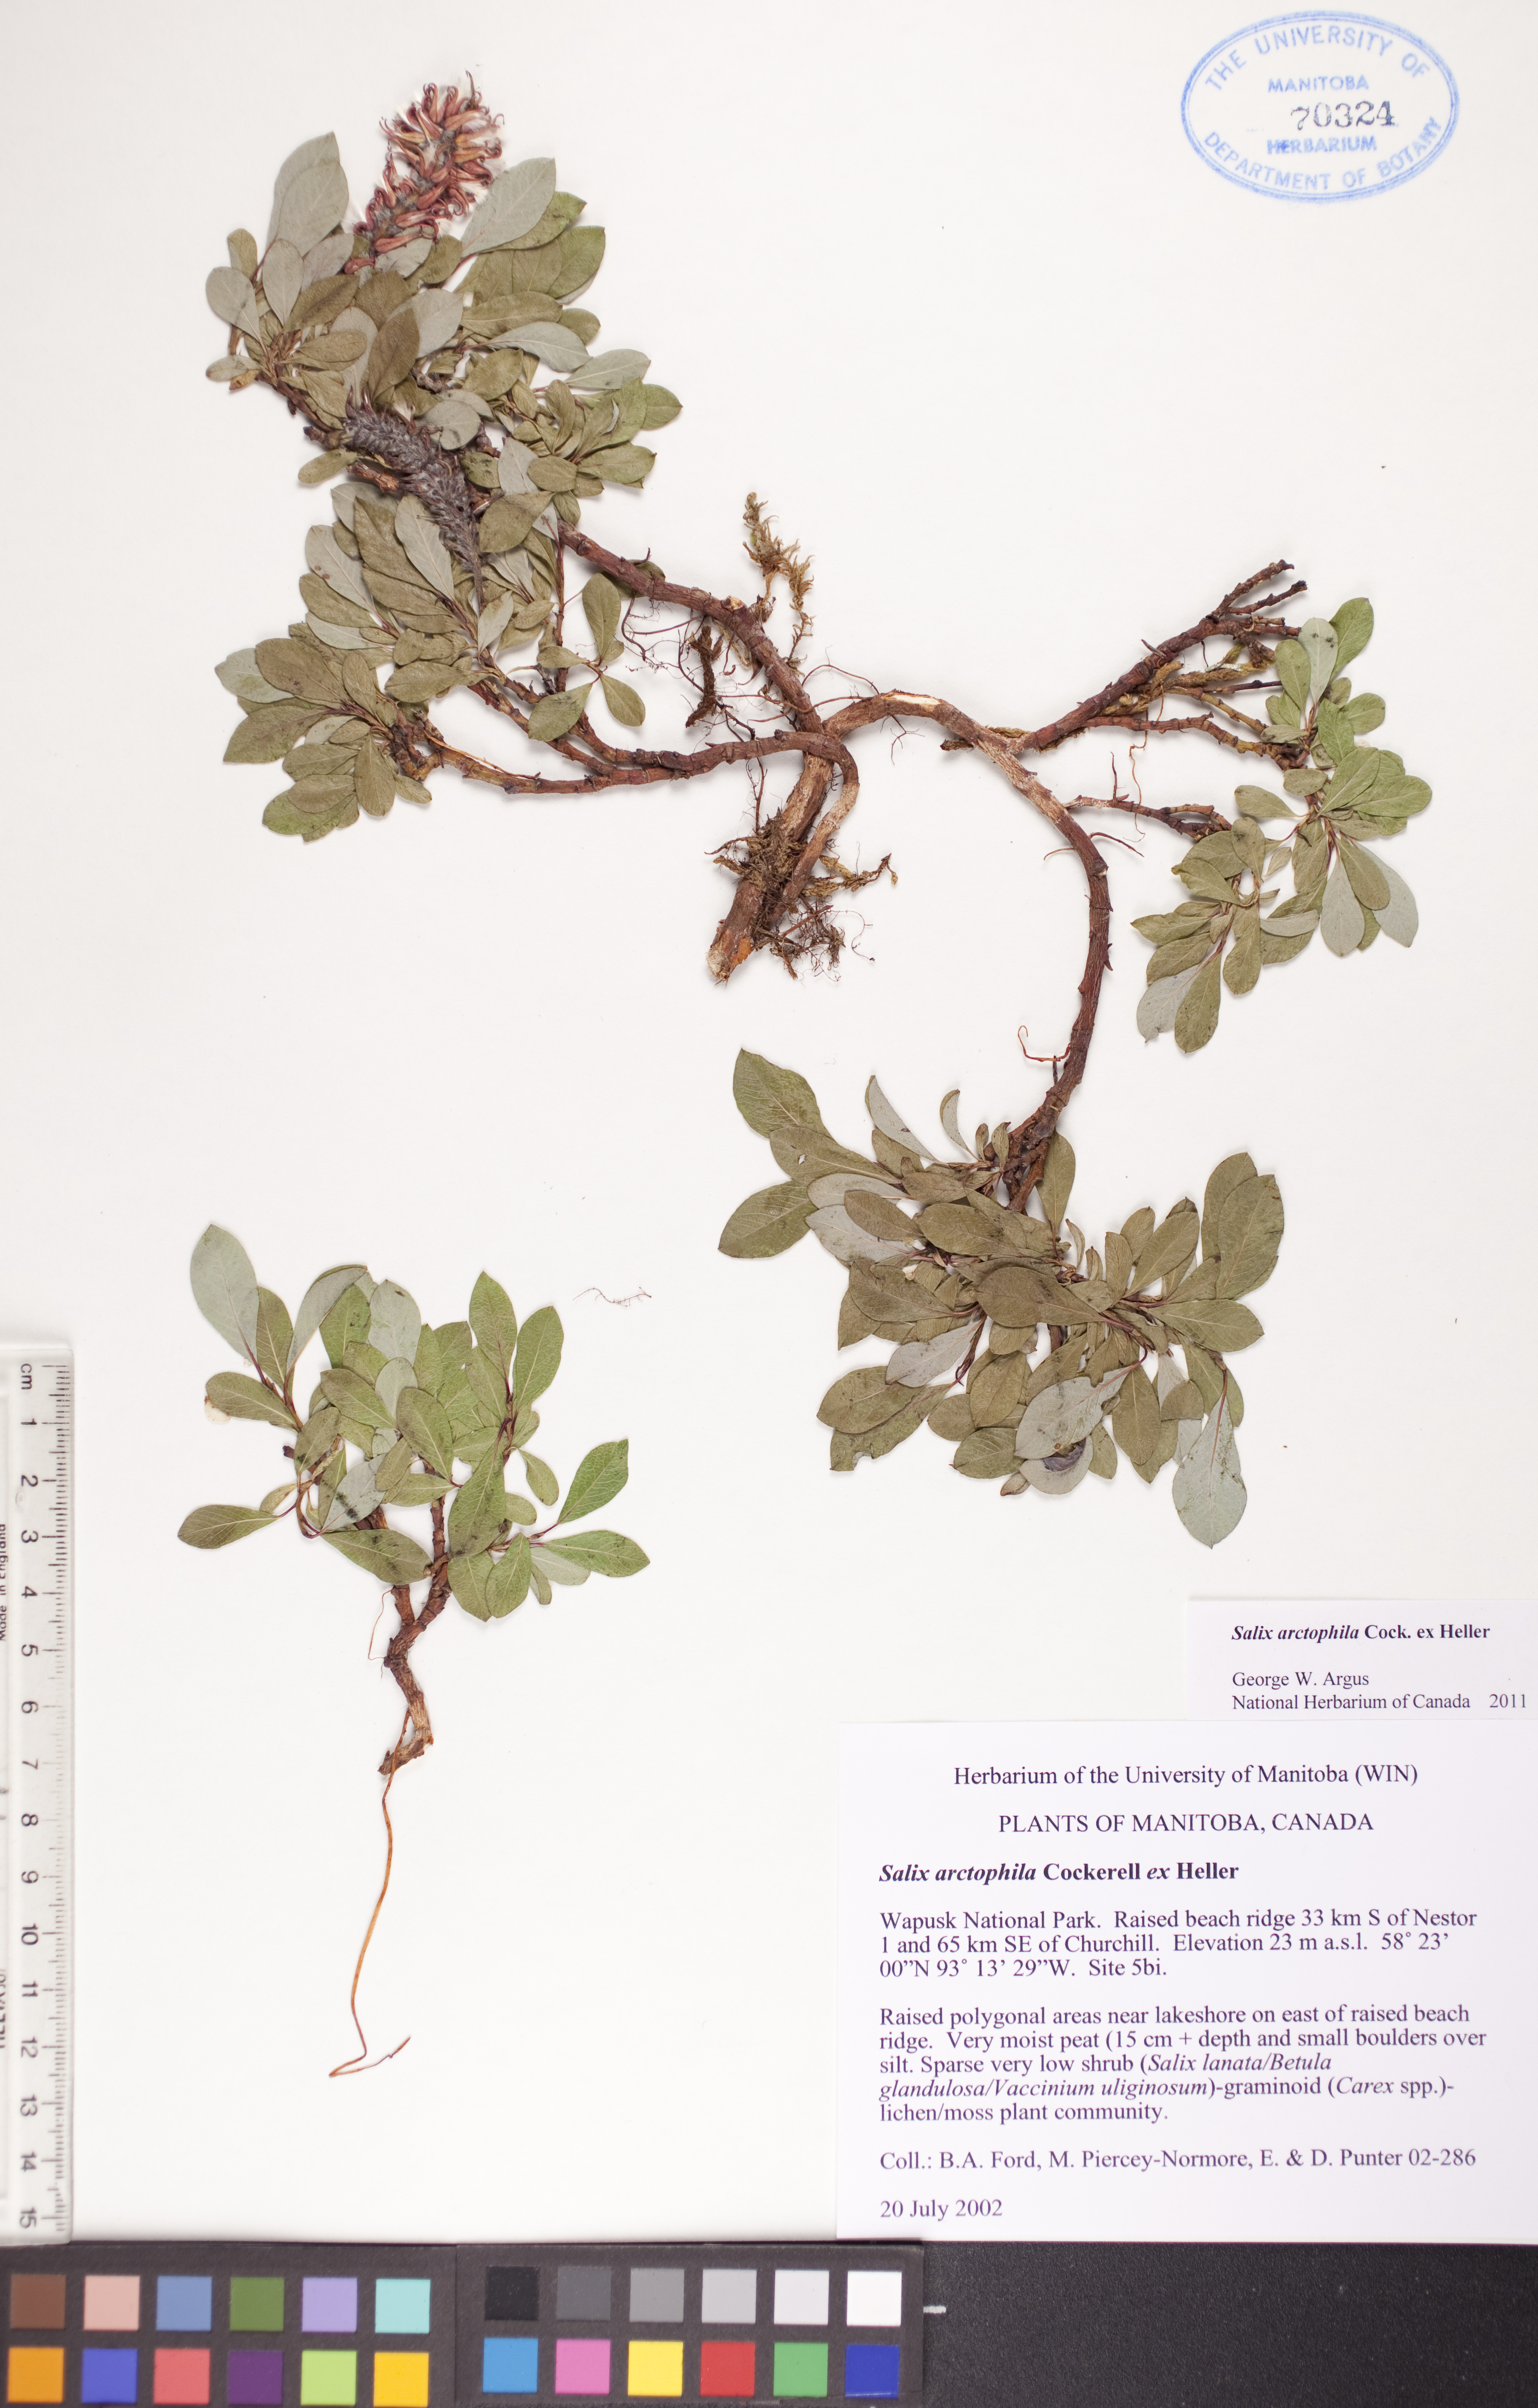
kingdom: Plantae
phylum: Tracheophyta
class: Magnoliopsida
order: Malpighiales
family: Salicaceae
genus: Salix
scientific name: Salix arctophila
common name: Greenland willow
